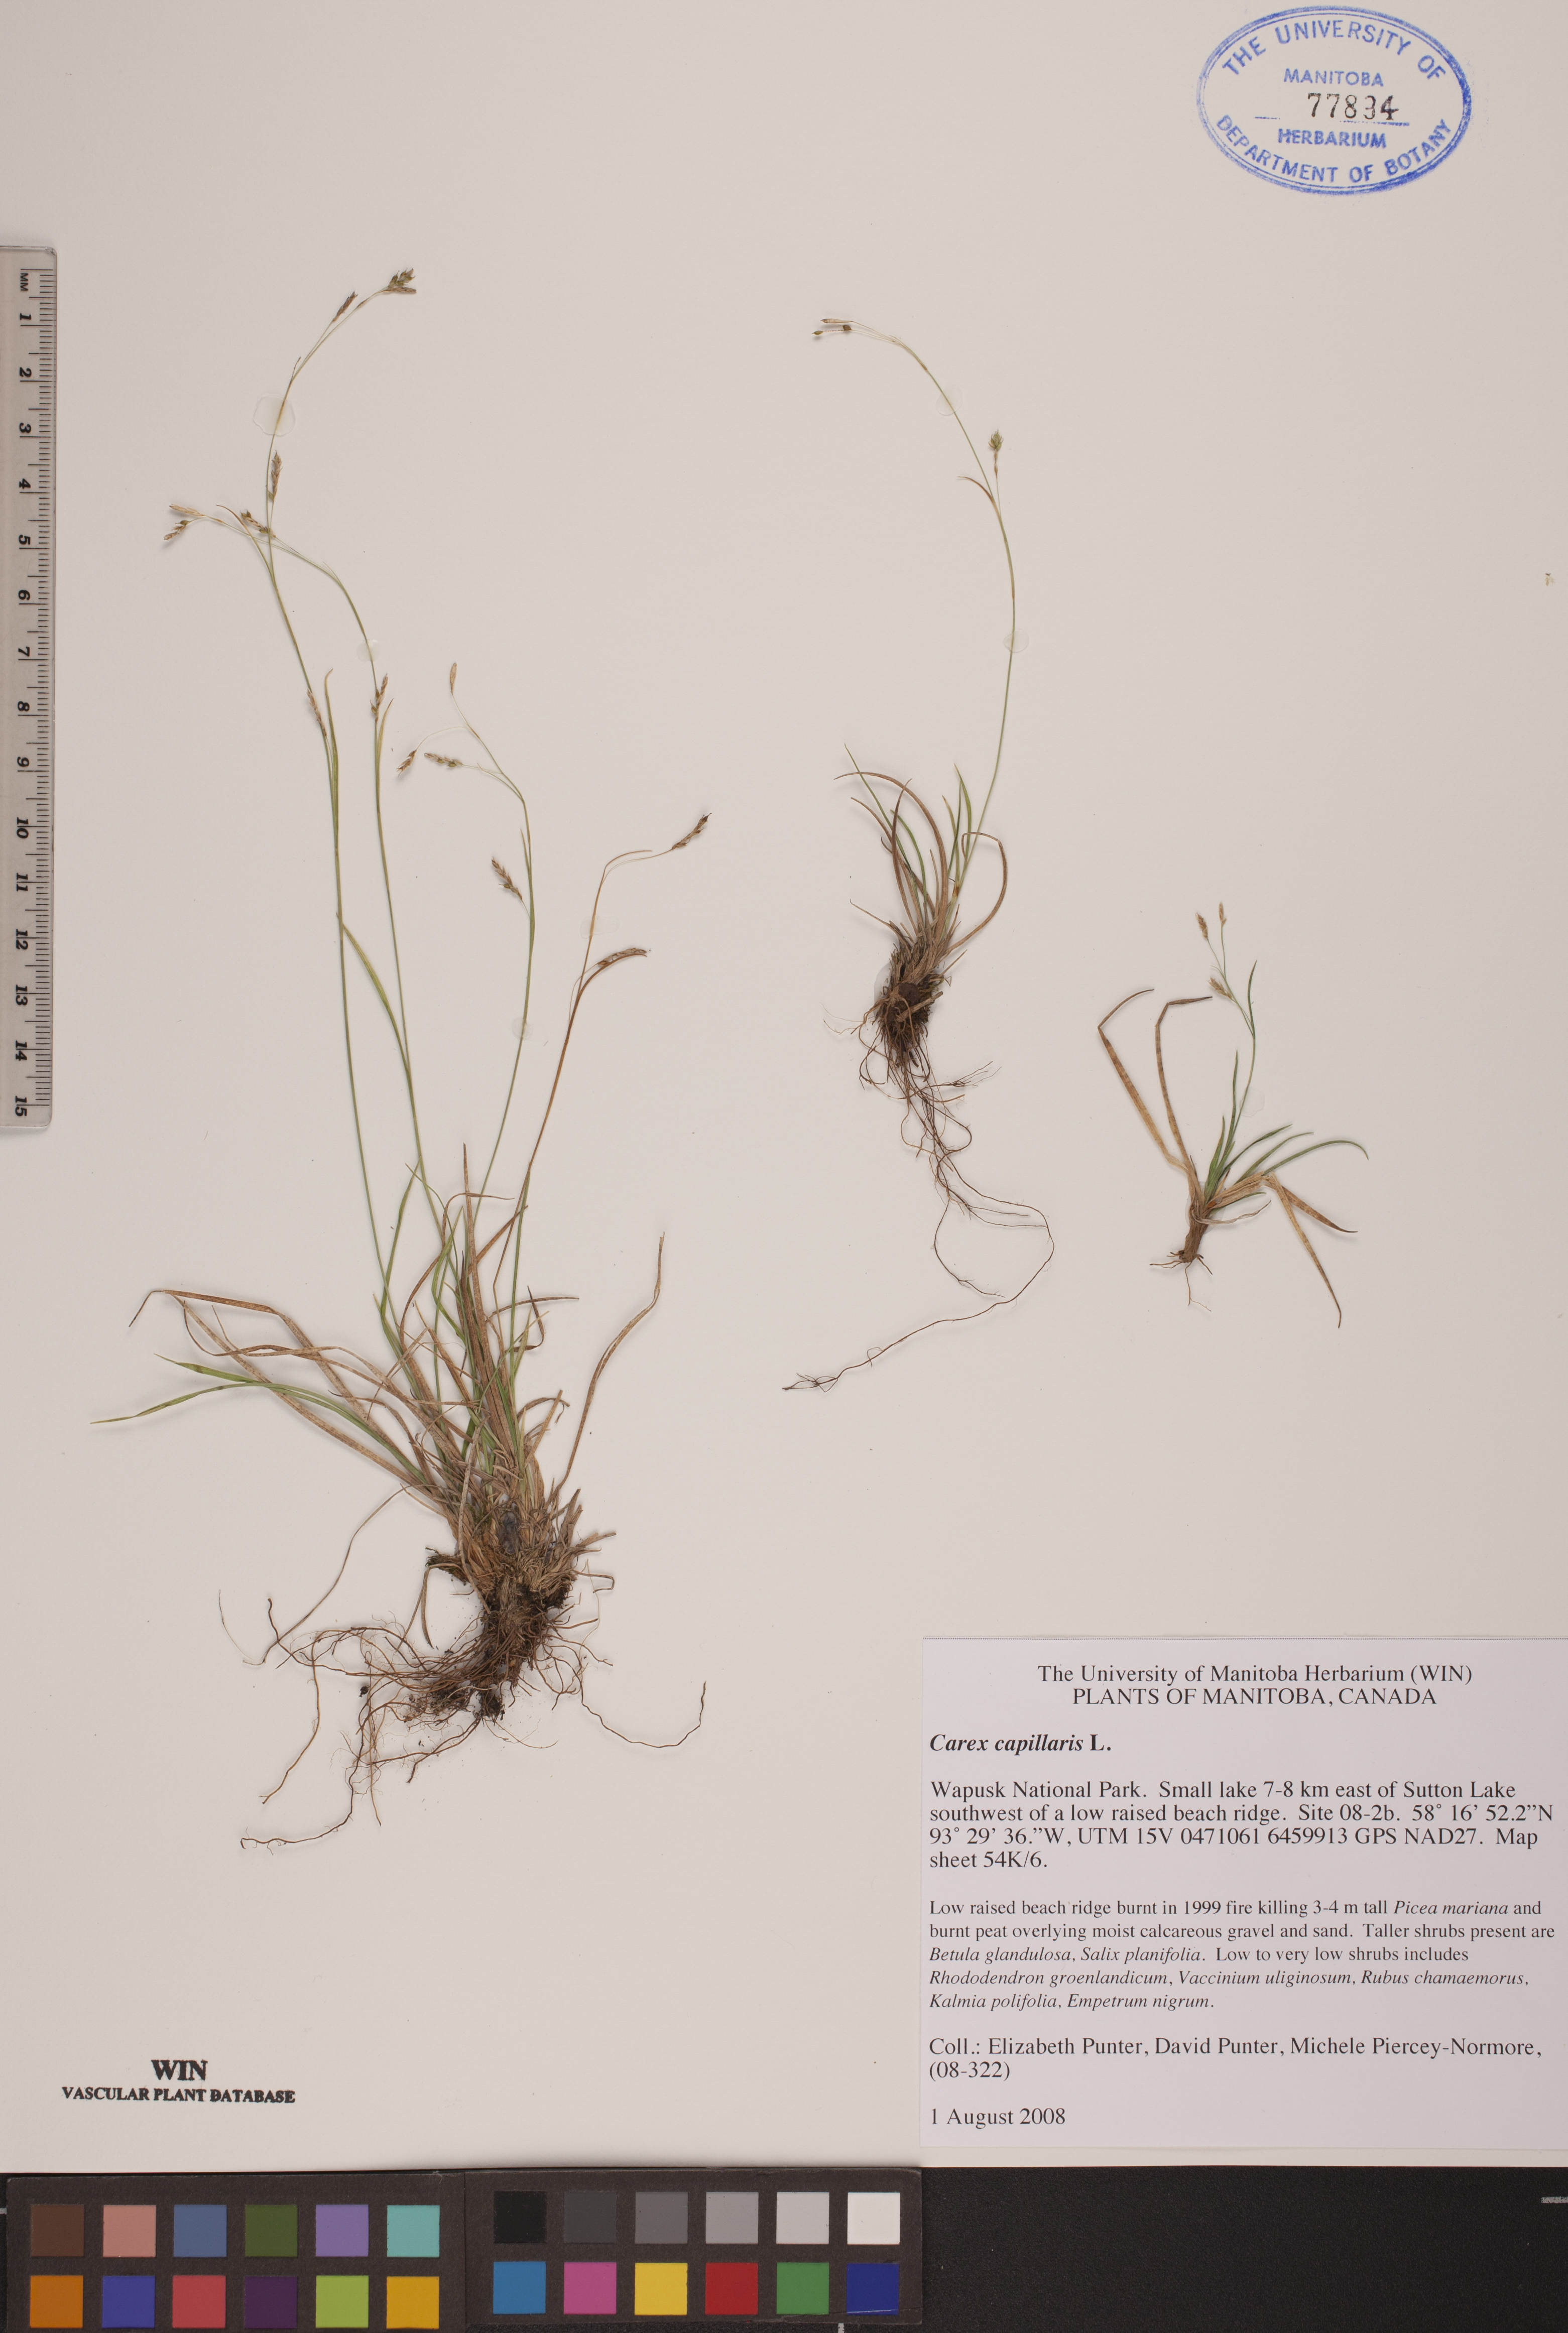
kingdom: Plantae
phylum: Tracheophyta
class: Liliopsida
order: Poales
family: Cyperaceae
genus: Carex
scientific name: Carex capillaris
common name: Hair sedge
